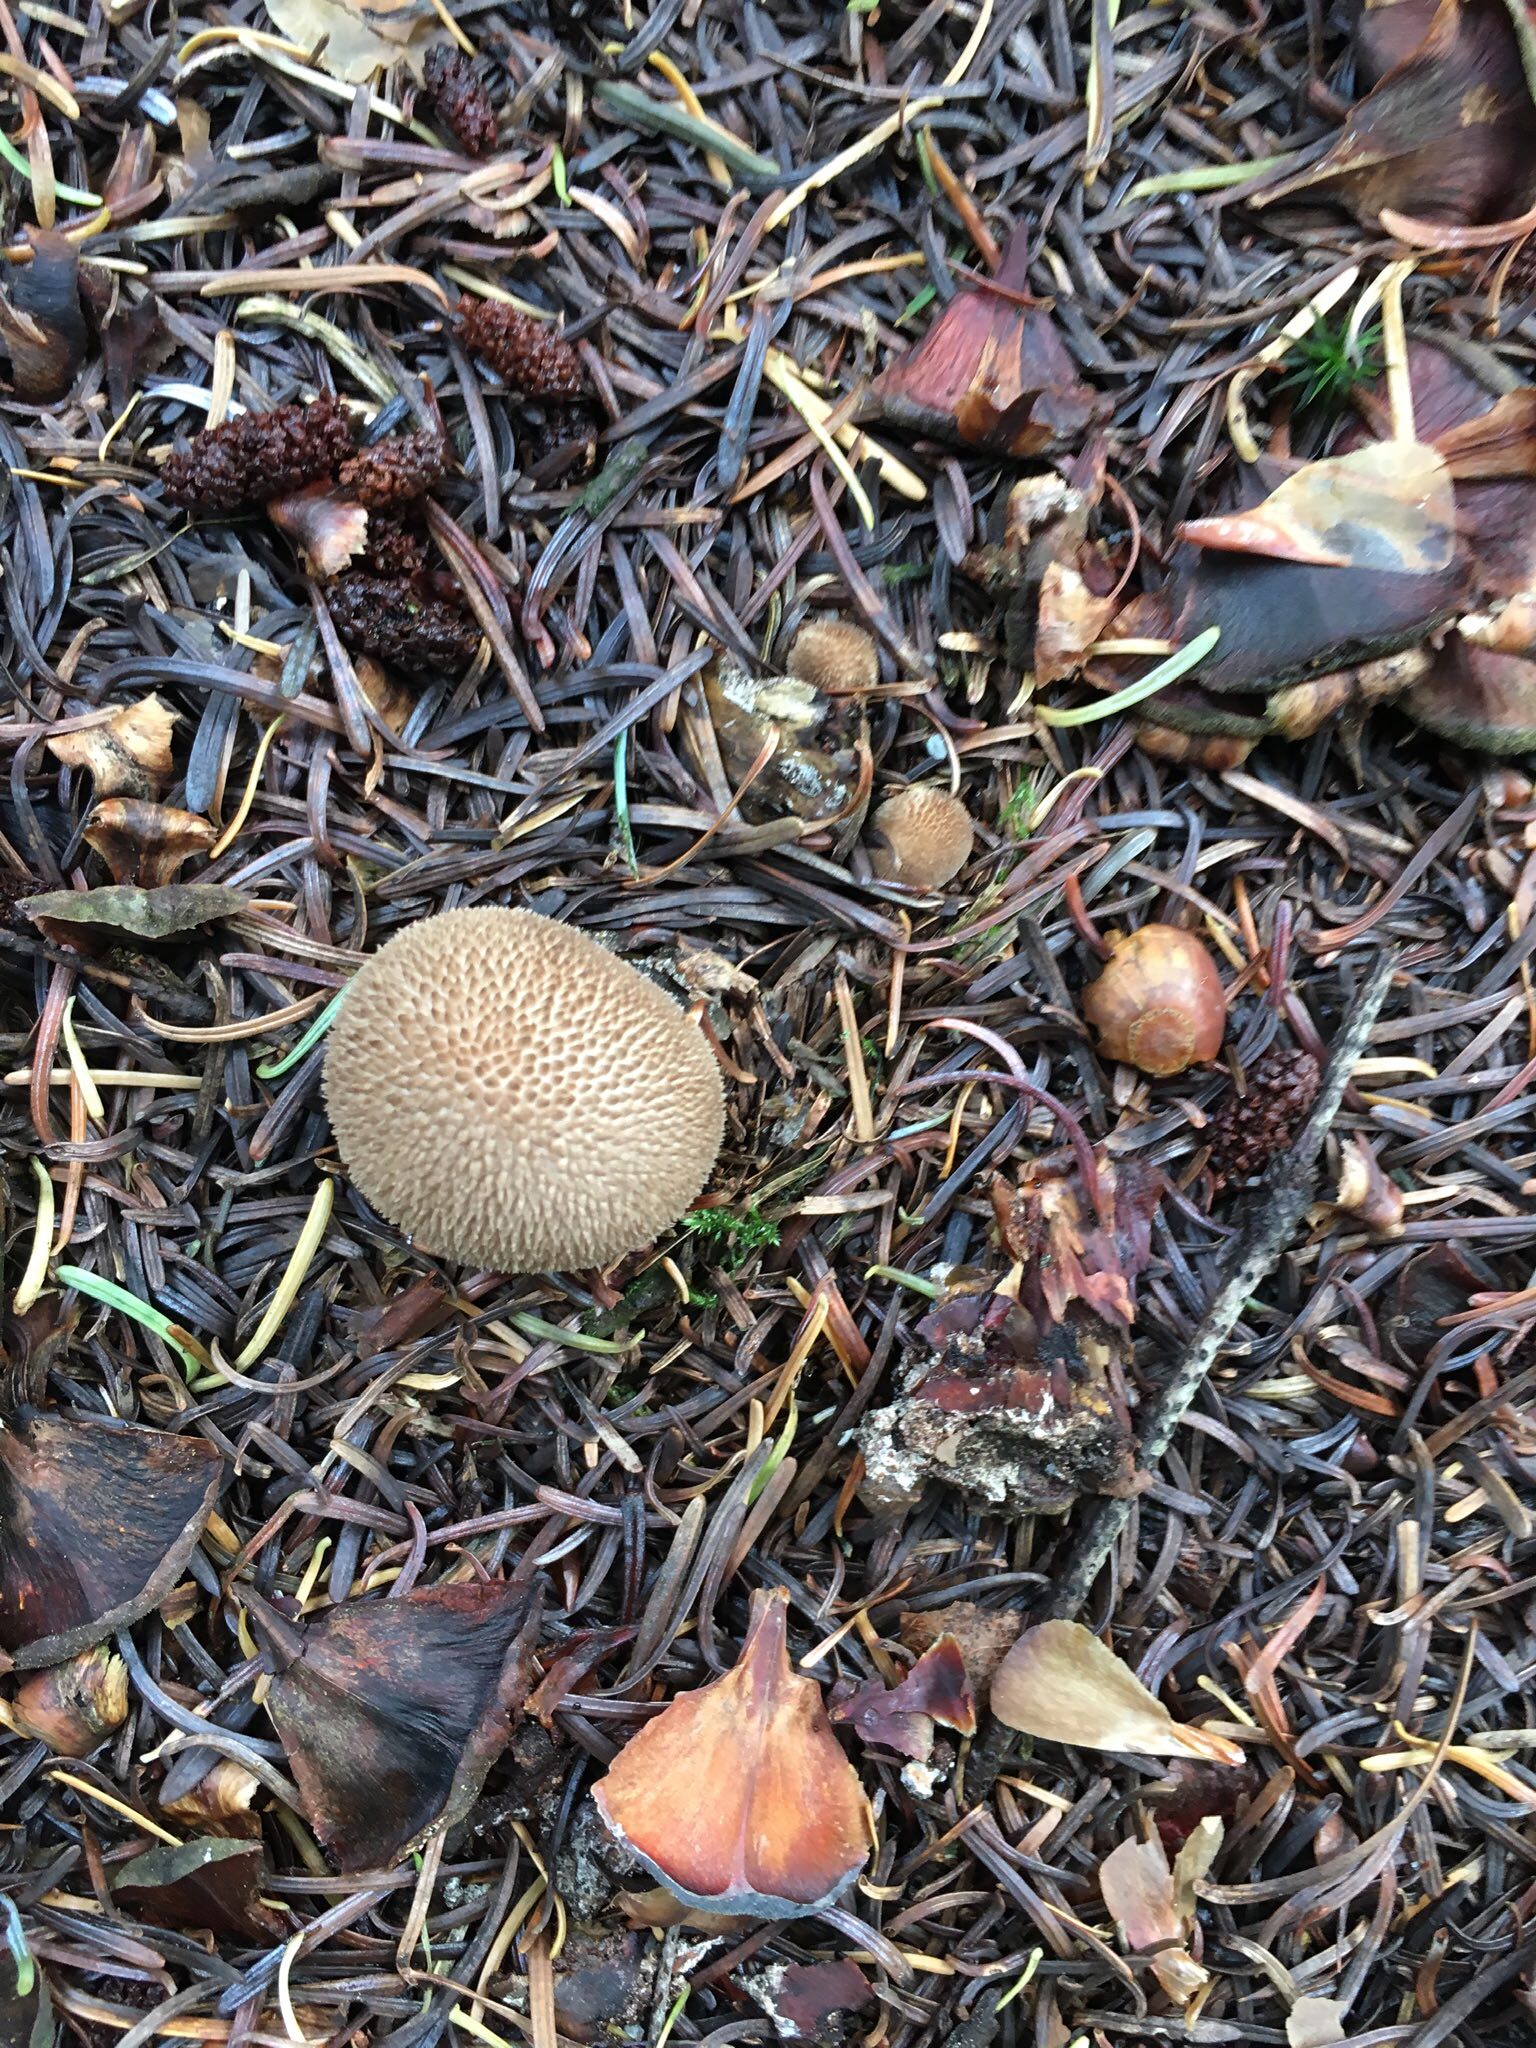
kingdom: Fungi
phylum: Basidiomycota
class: Agaricomycetes
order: Agaricales
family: Agaricaceae
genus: Lycoperdon
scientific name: Lycoperdon
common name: støvbold
